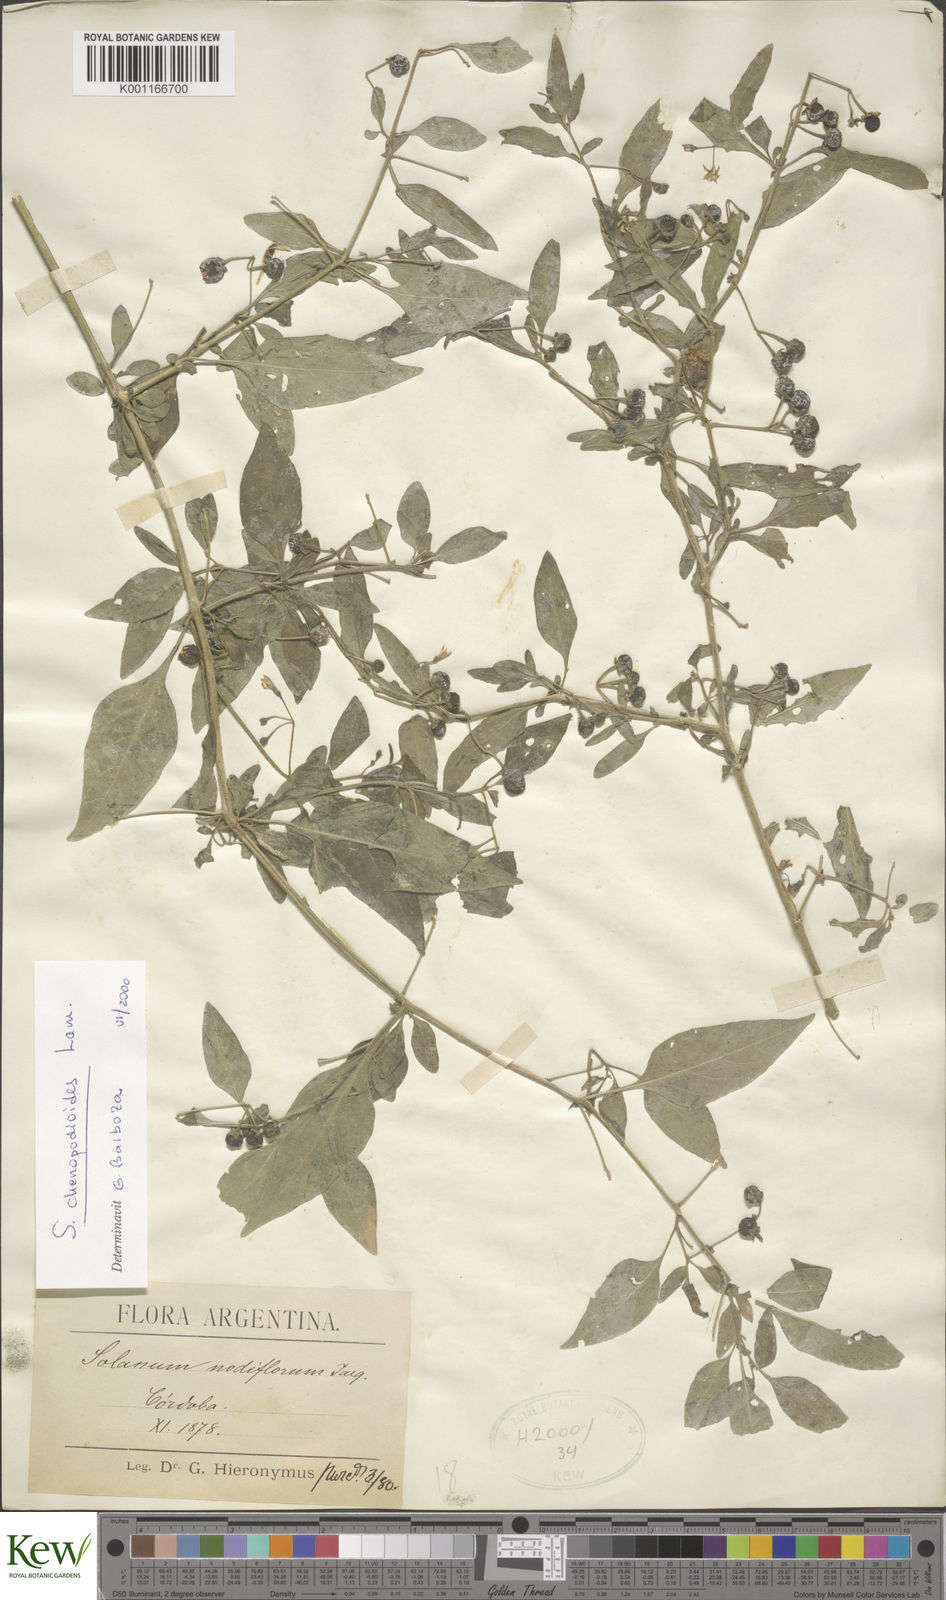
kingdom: Plantae
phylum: Tracheophyta
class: Magnoliopsida
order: Solanales
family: Solanaceae
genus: Solanum
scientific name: Solanum chenopodioides
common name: Tall nightshade
